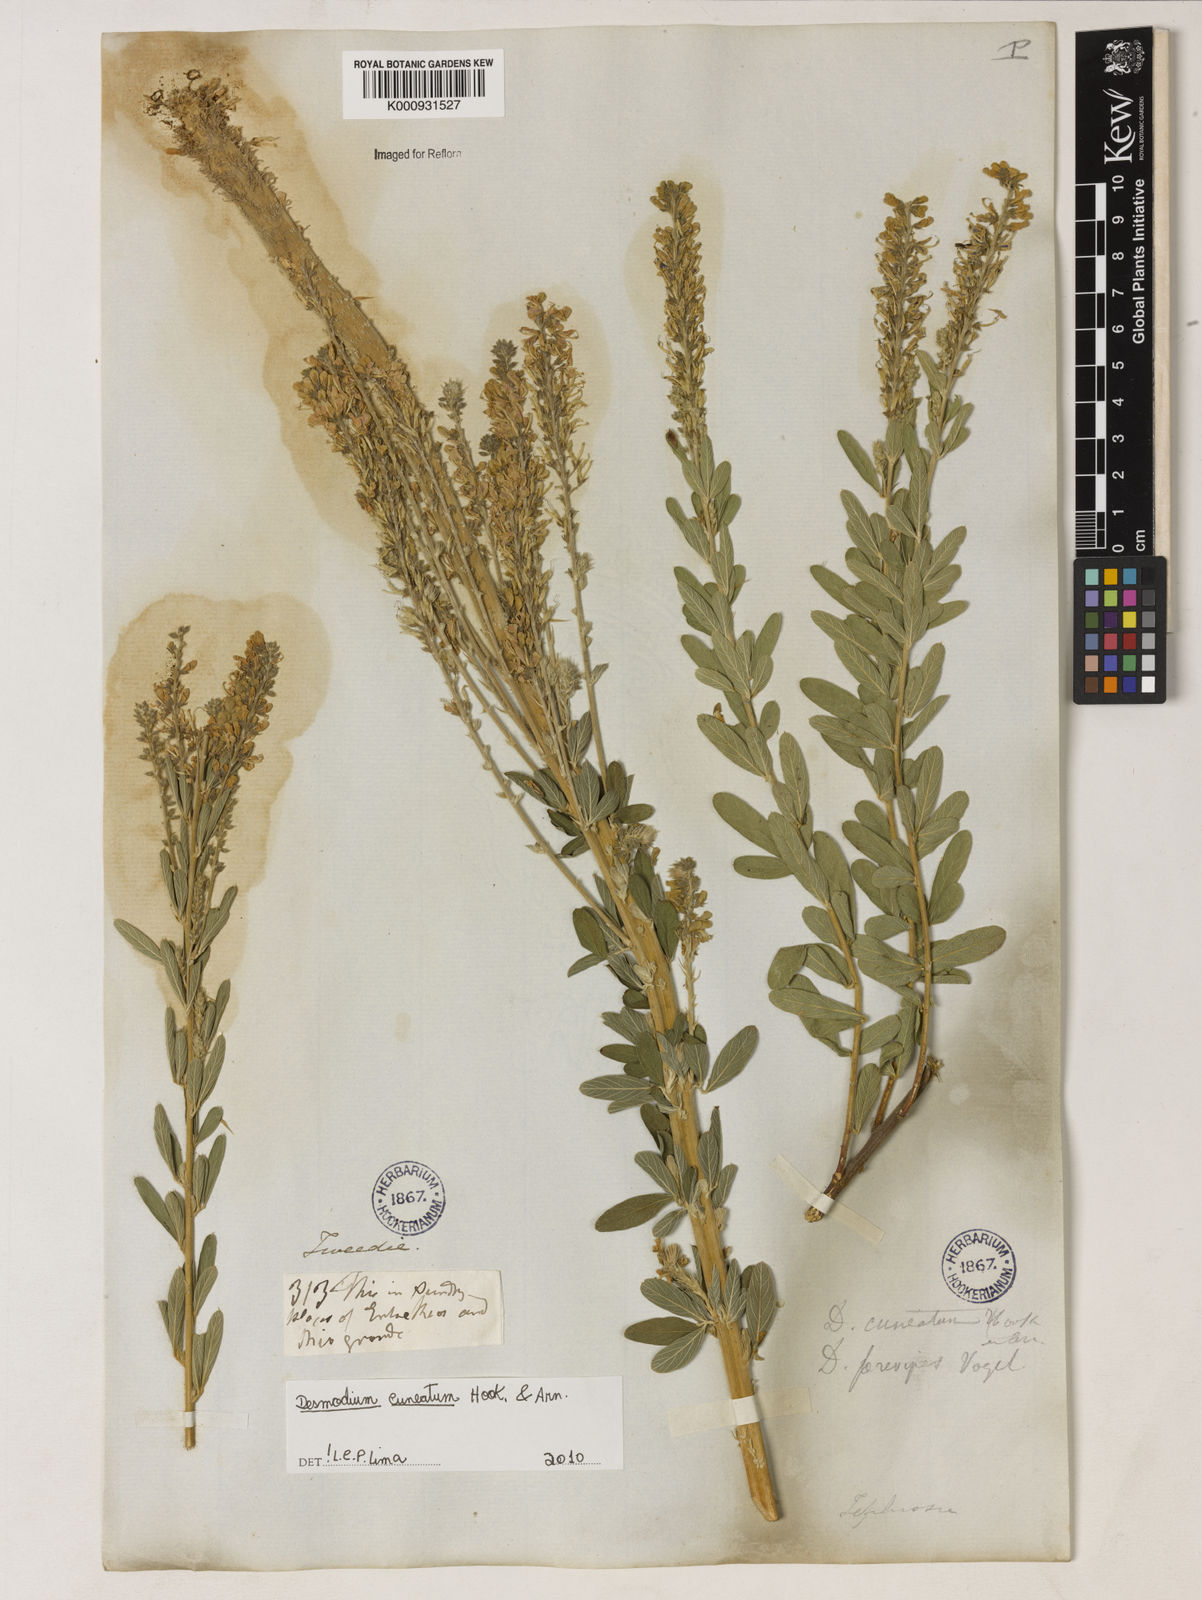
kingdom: Plantae
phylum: Tracheophyta
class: Magnoliopsida
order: Fabales
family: Fabaceae
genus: Desmodium
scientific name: Desmodium cuneatum
